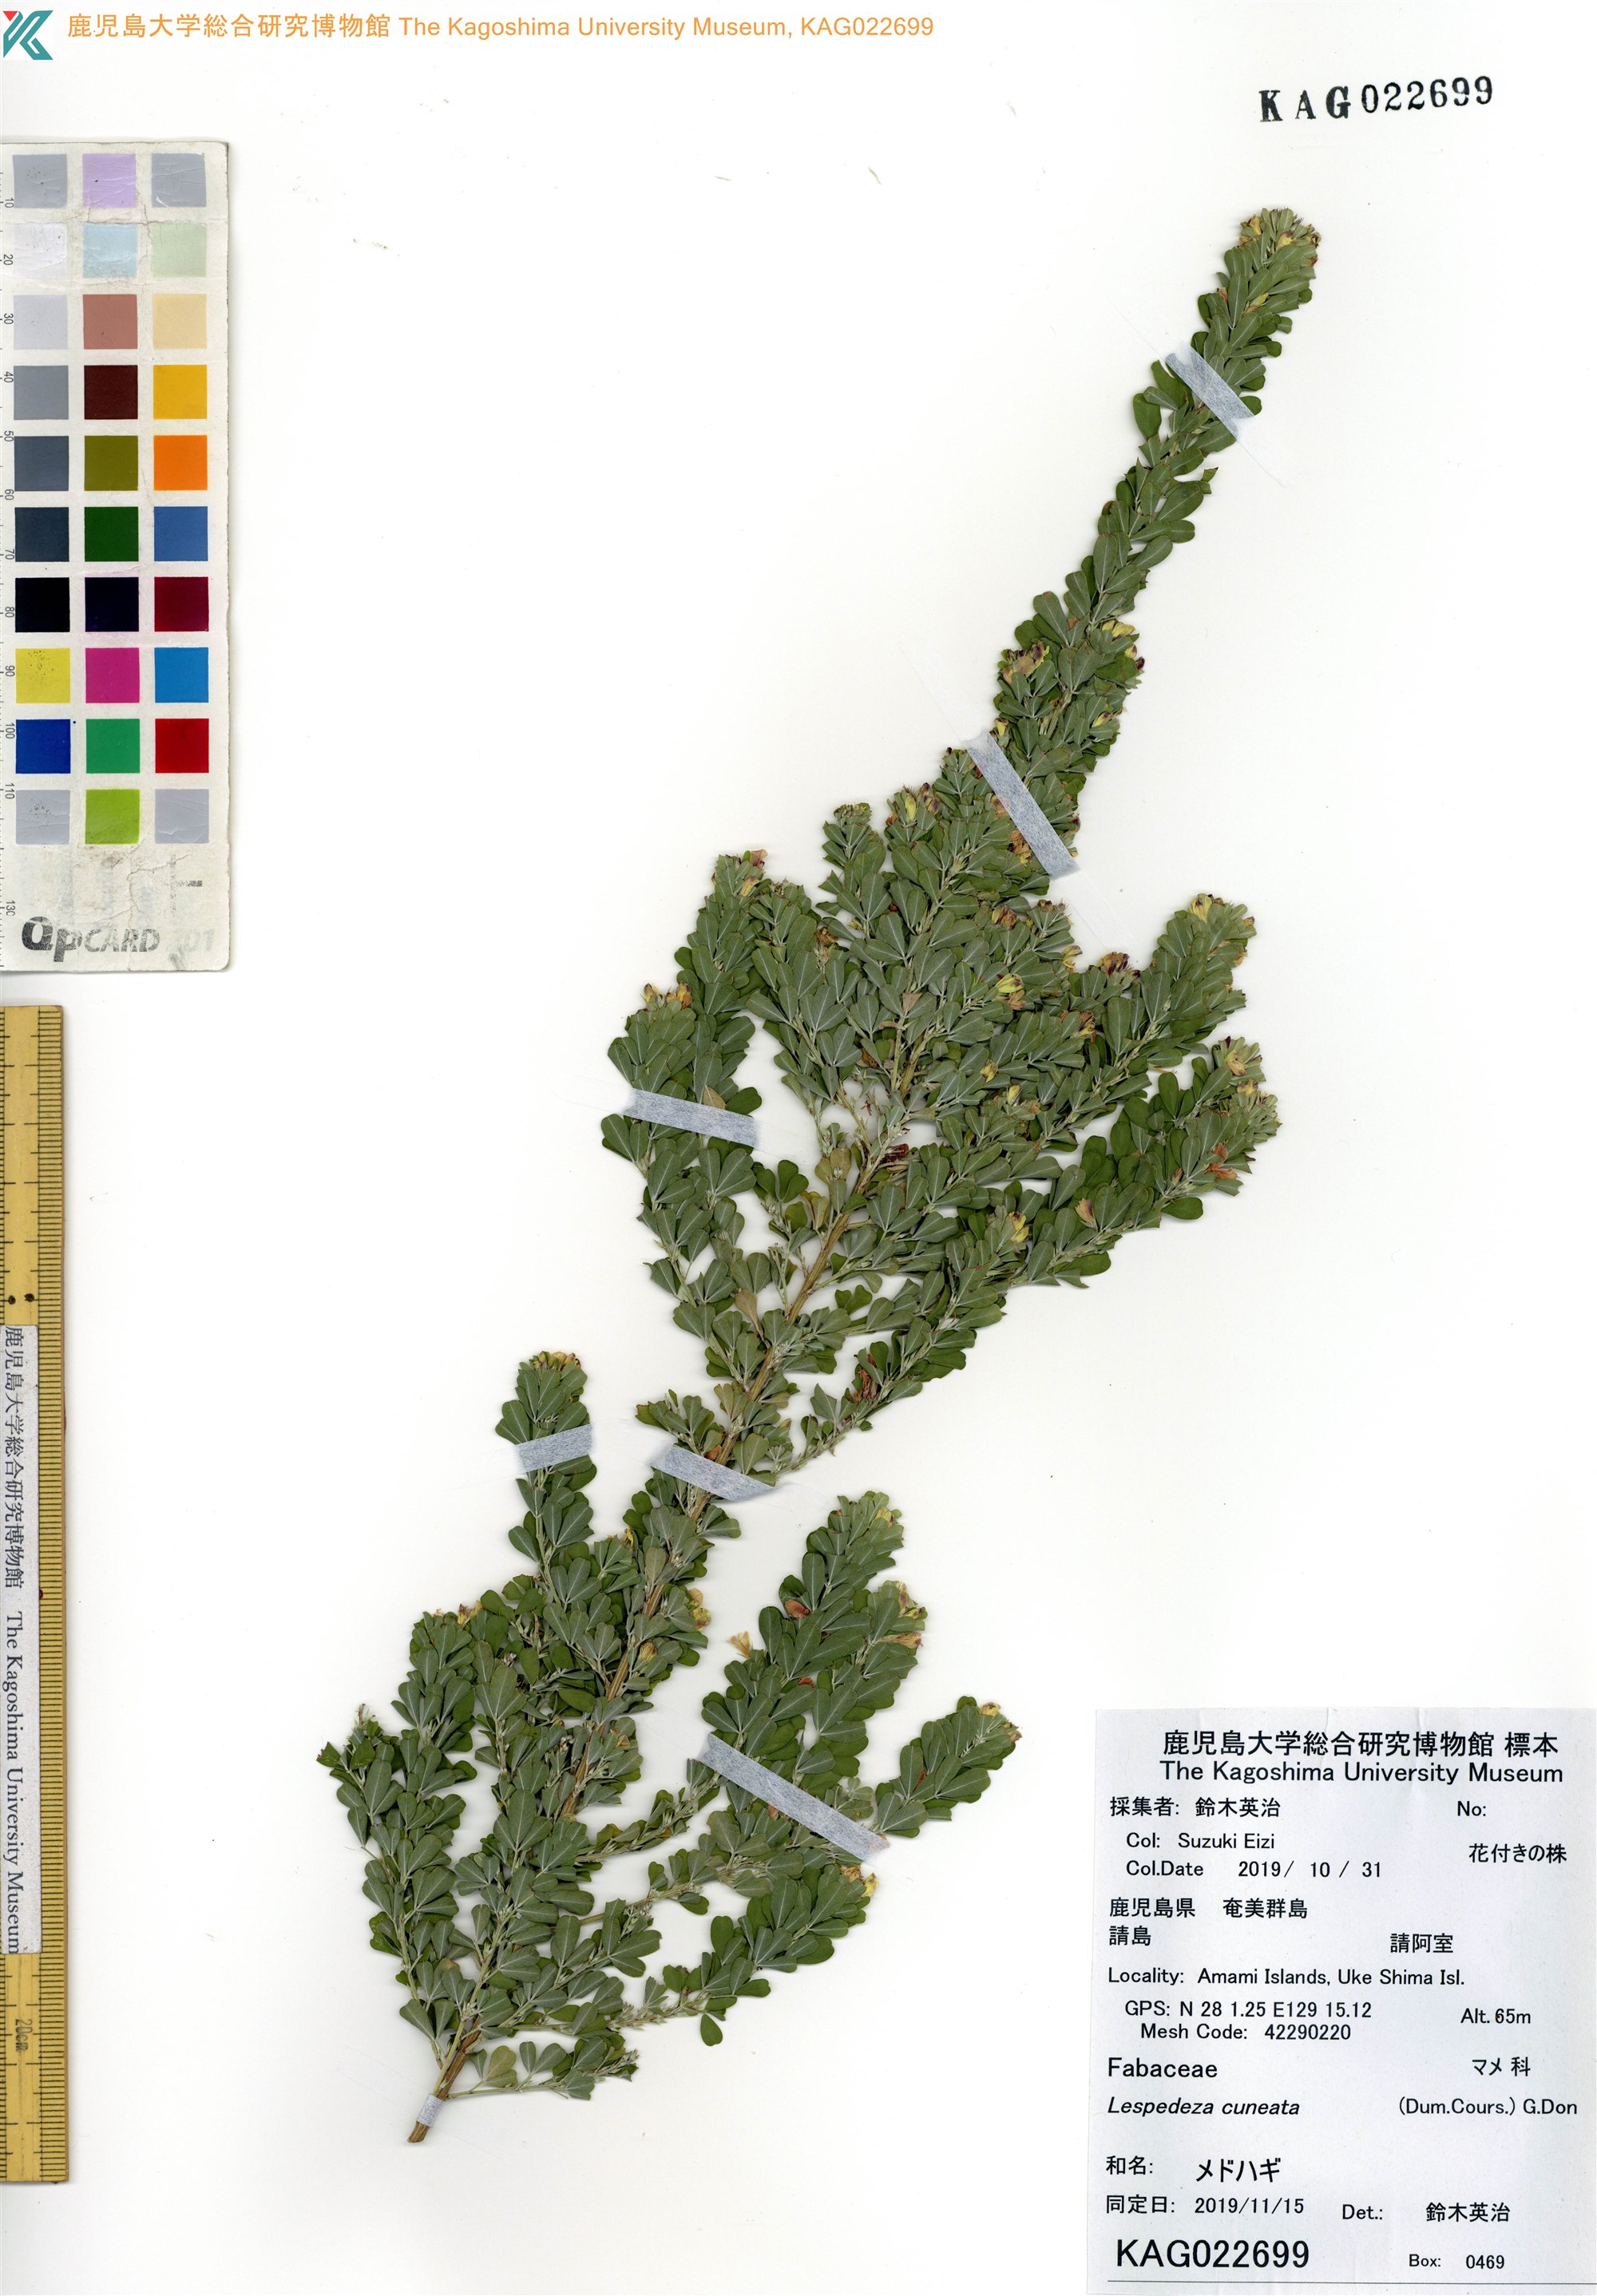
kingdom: Plantae
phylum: Tracheophyta
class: Magnoliopsida
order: Fabales
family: Fabaceae
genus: Lespedeza
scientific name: Lespedeza cuneata
